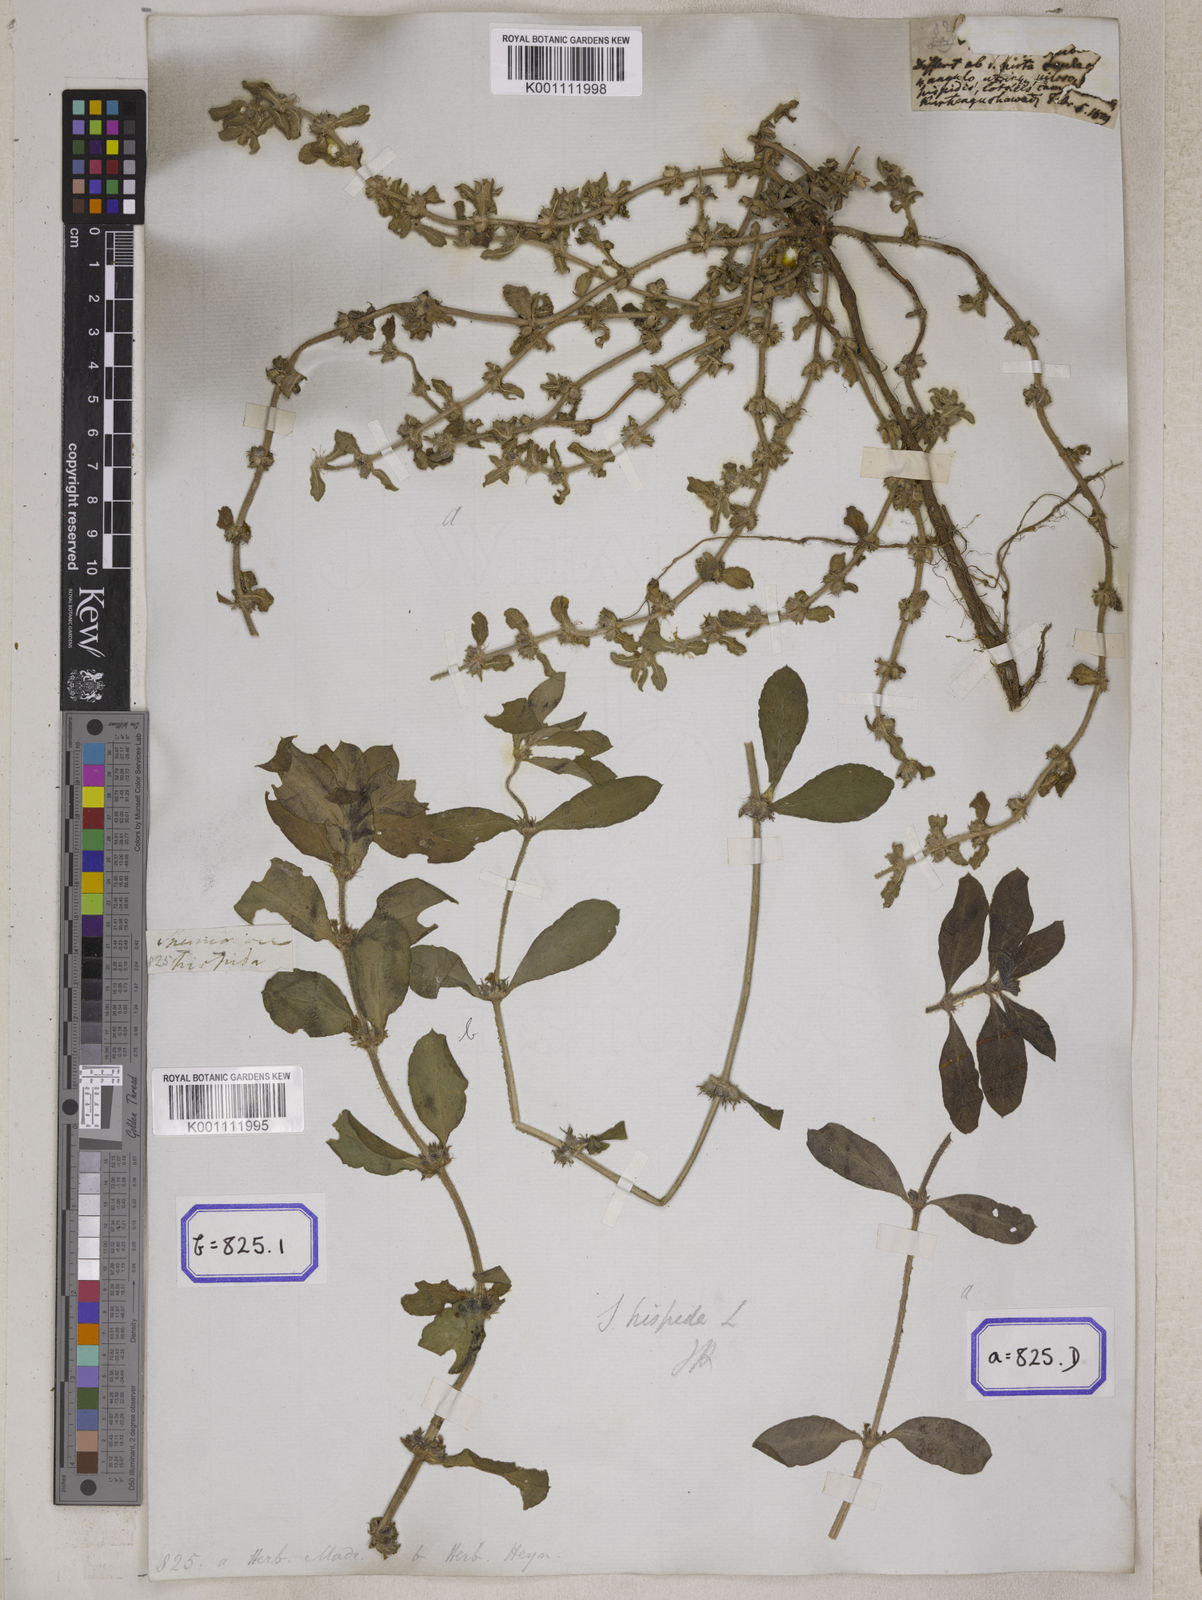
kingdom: Plantae
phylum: Tracheophyta
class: Magnoliopsida
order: Gentianales
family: Rubiaceae
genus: Spermacoce
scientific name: Spermacoce hispida
